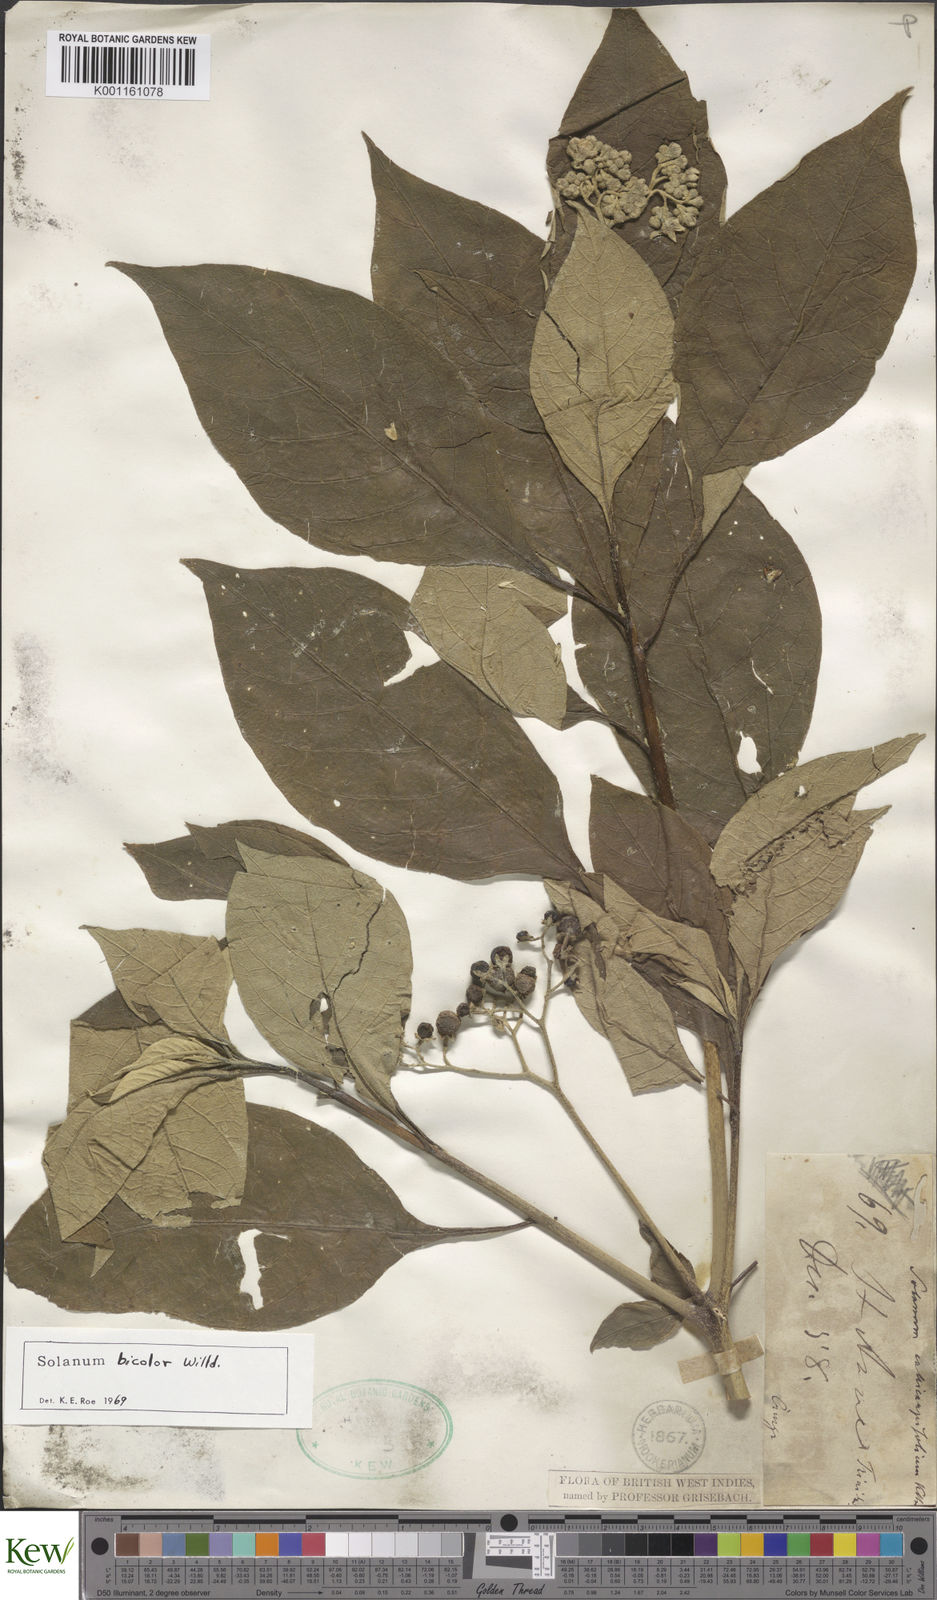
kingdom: Plantae
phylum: Tracheophyta
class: Magnoliopsida
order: Solanales
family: Solanaceae
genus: Solanum
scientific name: Solanum bicolor
